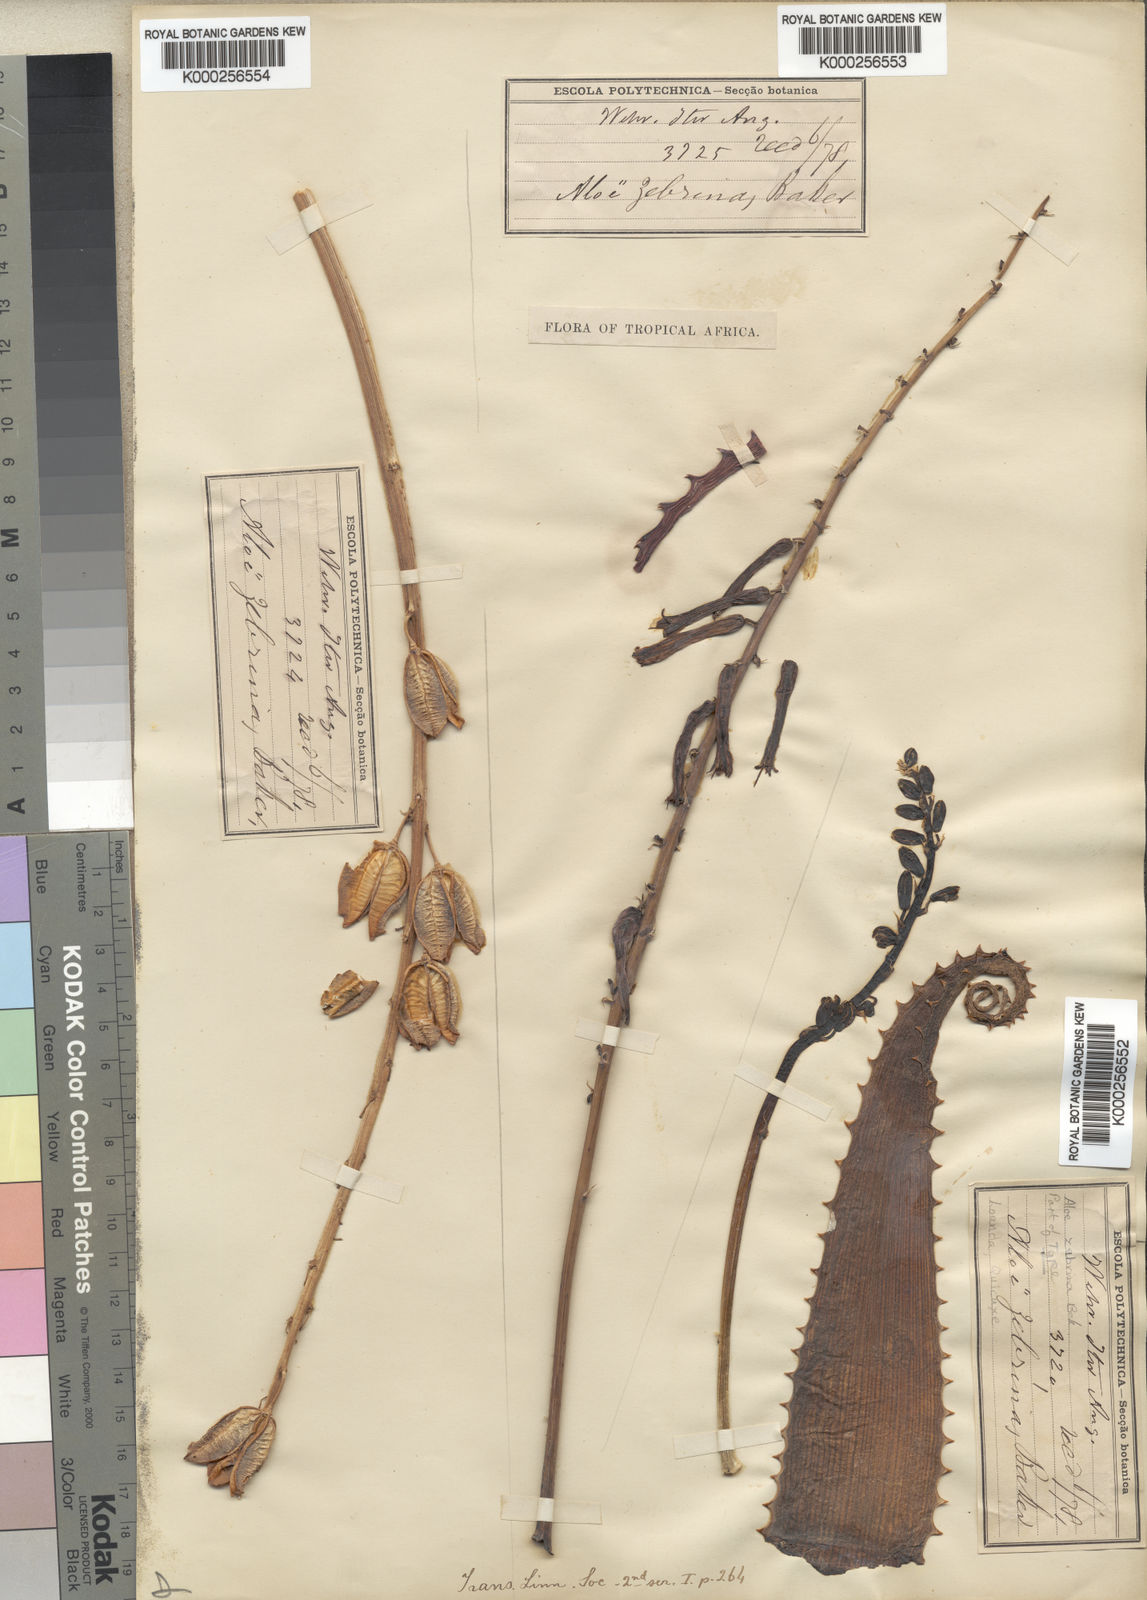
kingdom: Plantae
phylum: Tracheophyta
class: Liliopsida
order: Asparagales
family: Asphodelaceae
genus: Aloe
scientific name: Aloe zebrina
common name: Zebra-leaf aloe
